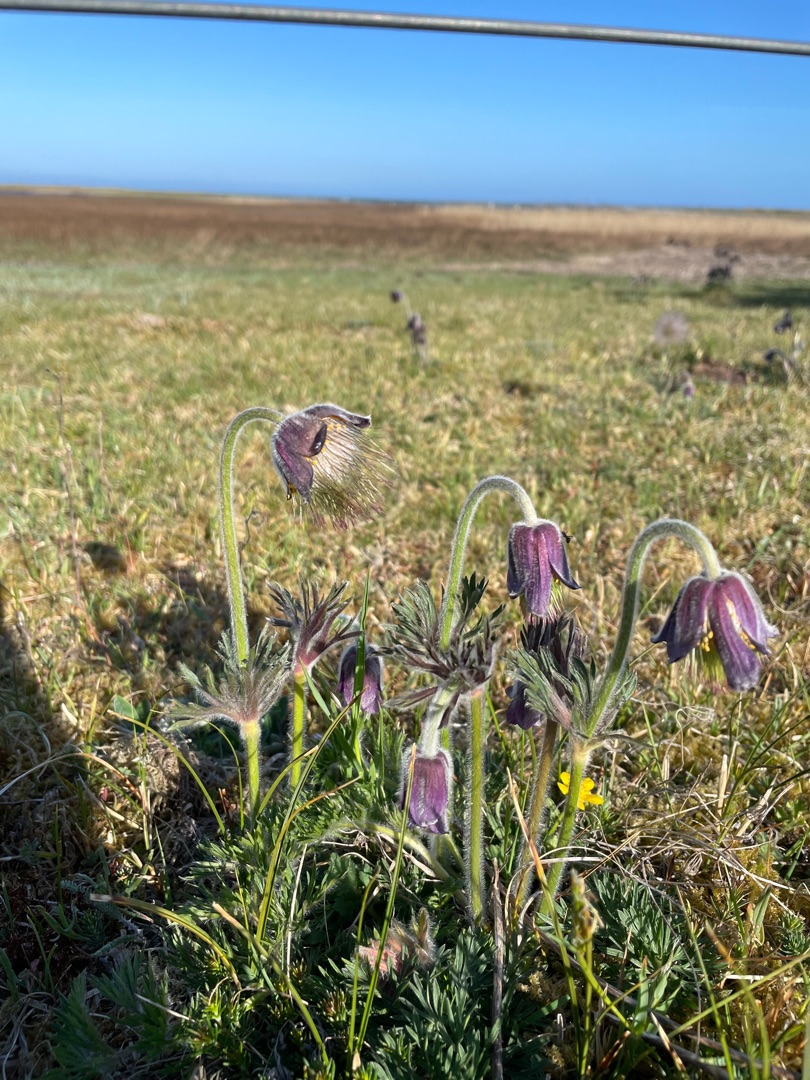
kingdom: Plantae
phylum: Tracheophyta
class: Magnoliopsida
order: Ranunculales
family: Ranunculaceae
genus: Pulsatilla
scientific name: Pulsatilla pratensis
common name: Nikkende kobjælde
